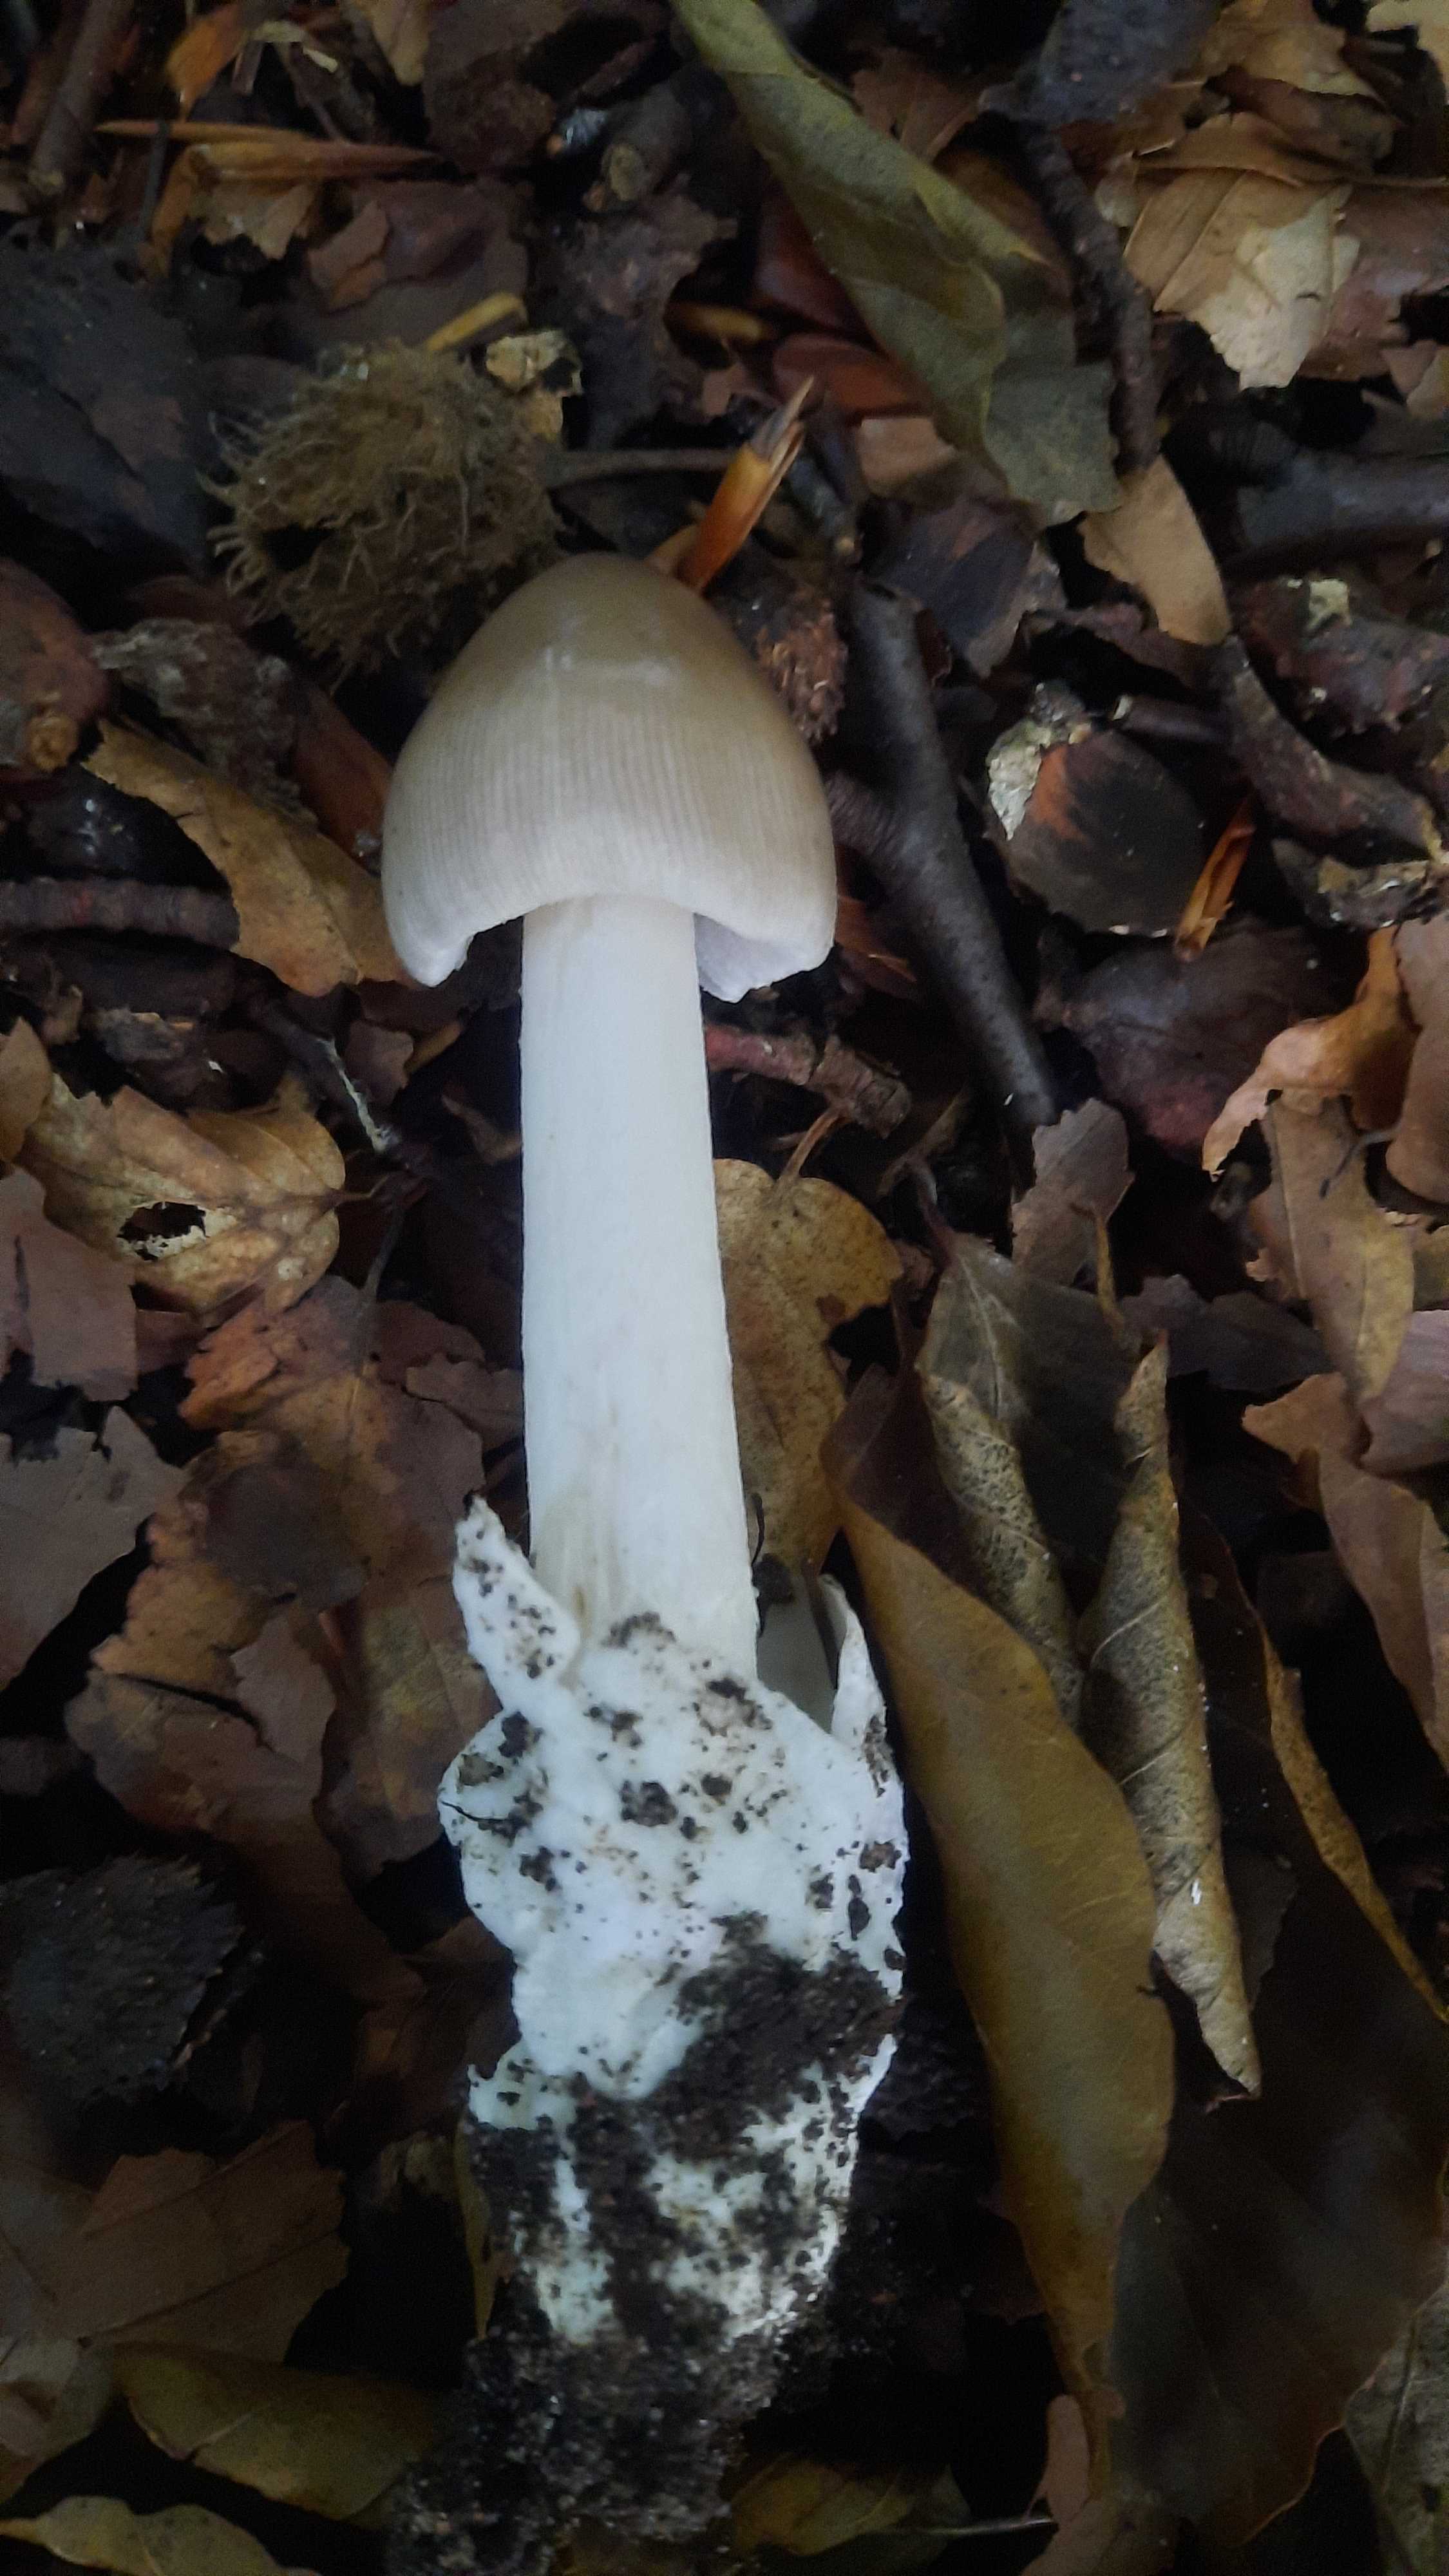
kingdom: Fungi
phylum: Basidiomycota
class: Agaricomycetes
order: Agaricales
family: Amanitaceae
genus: Amanita
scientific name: Amanita
